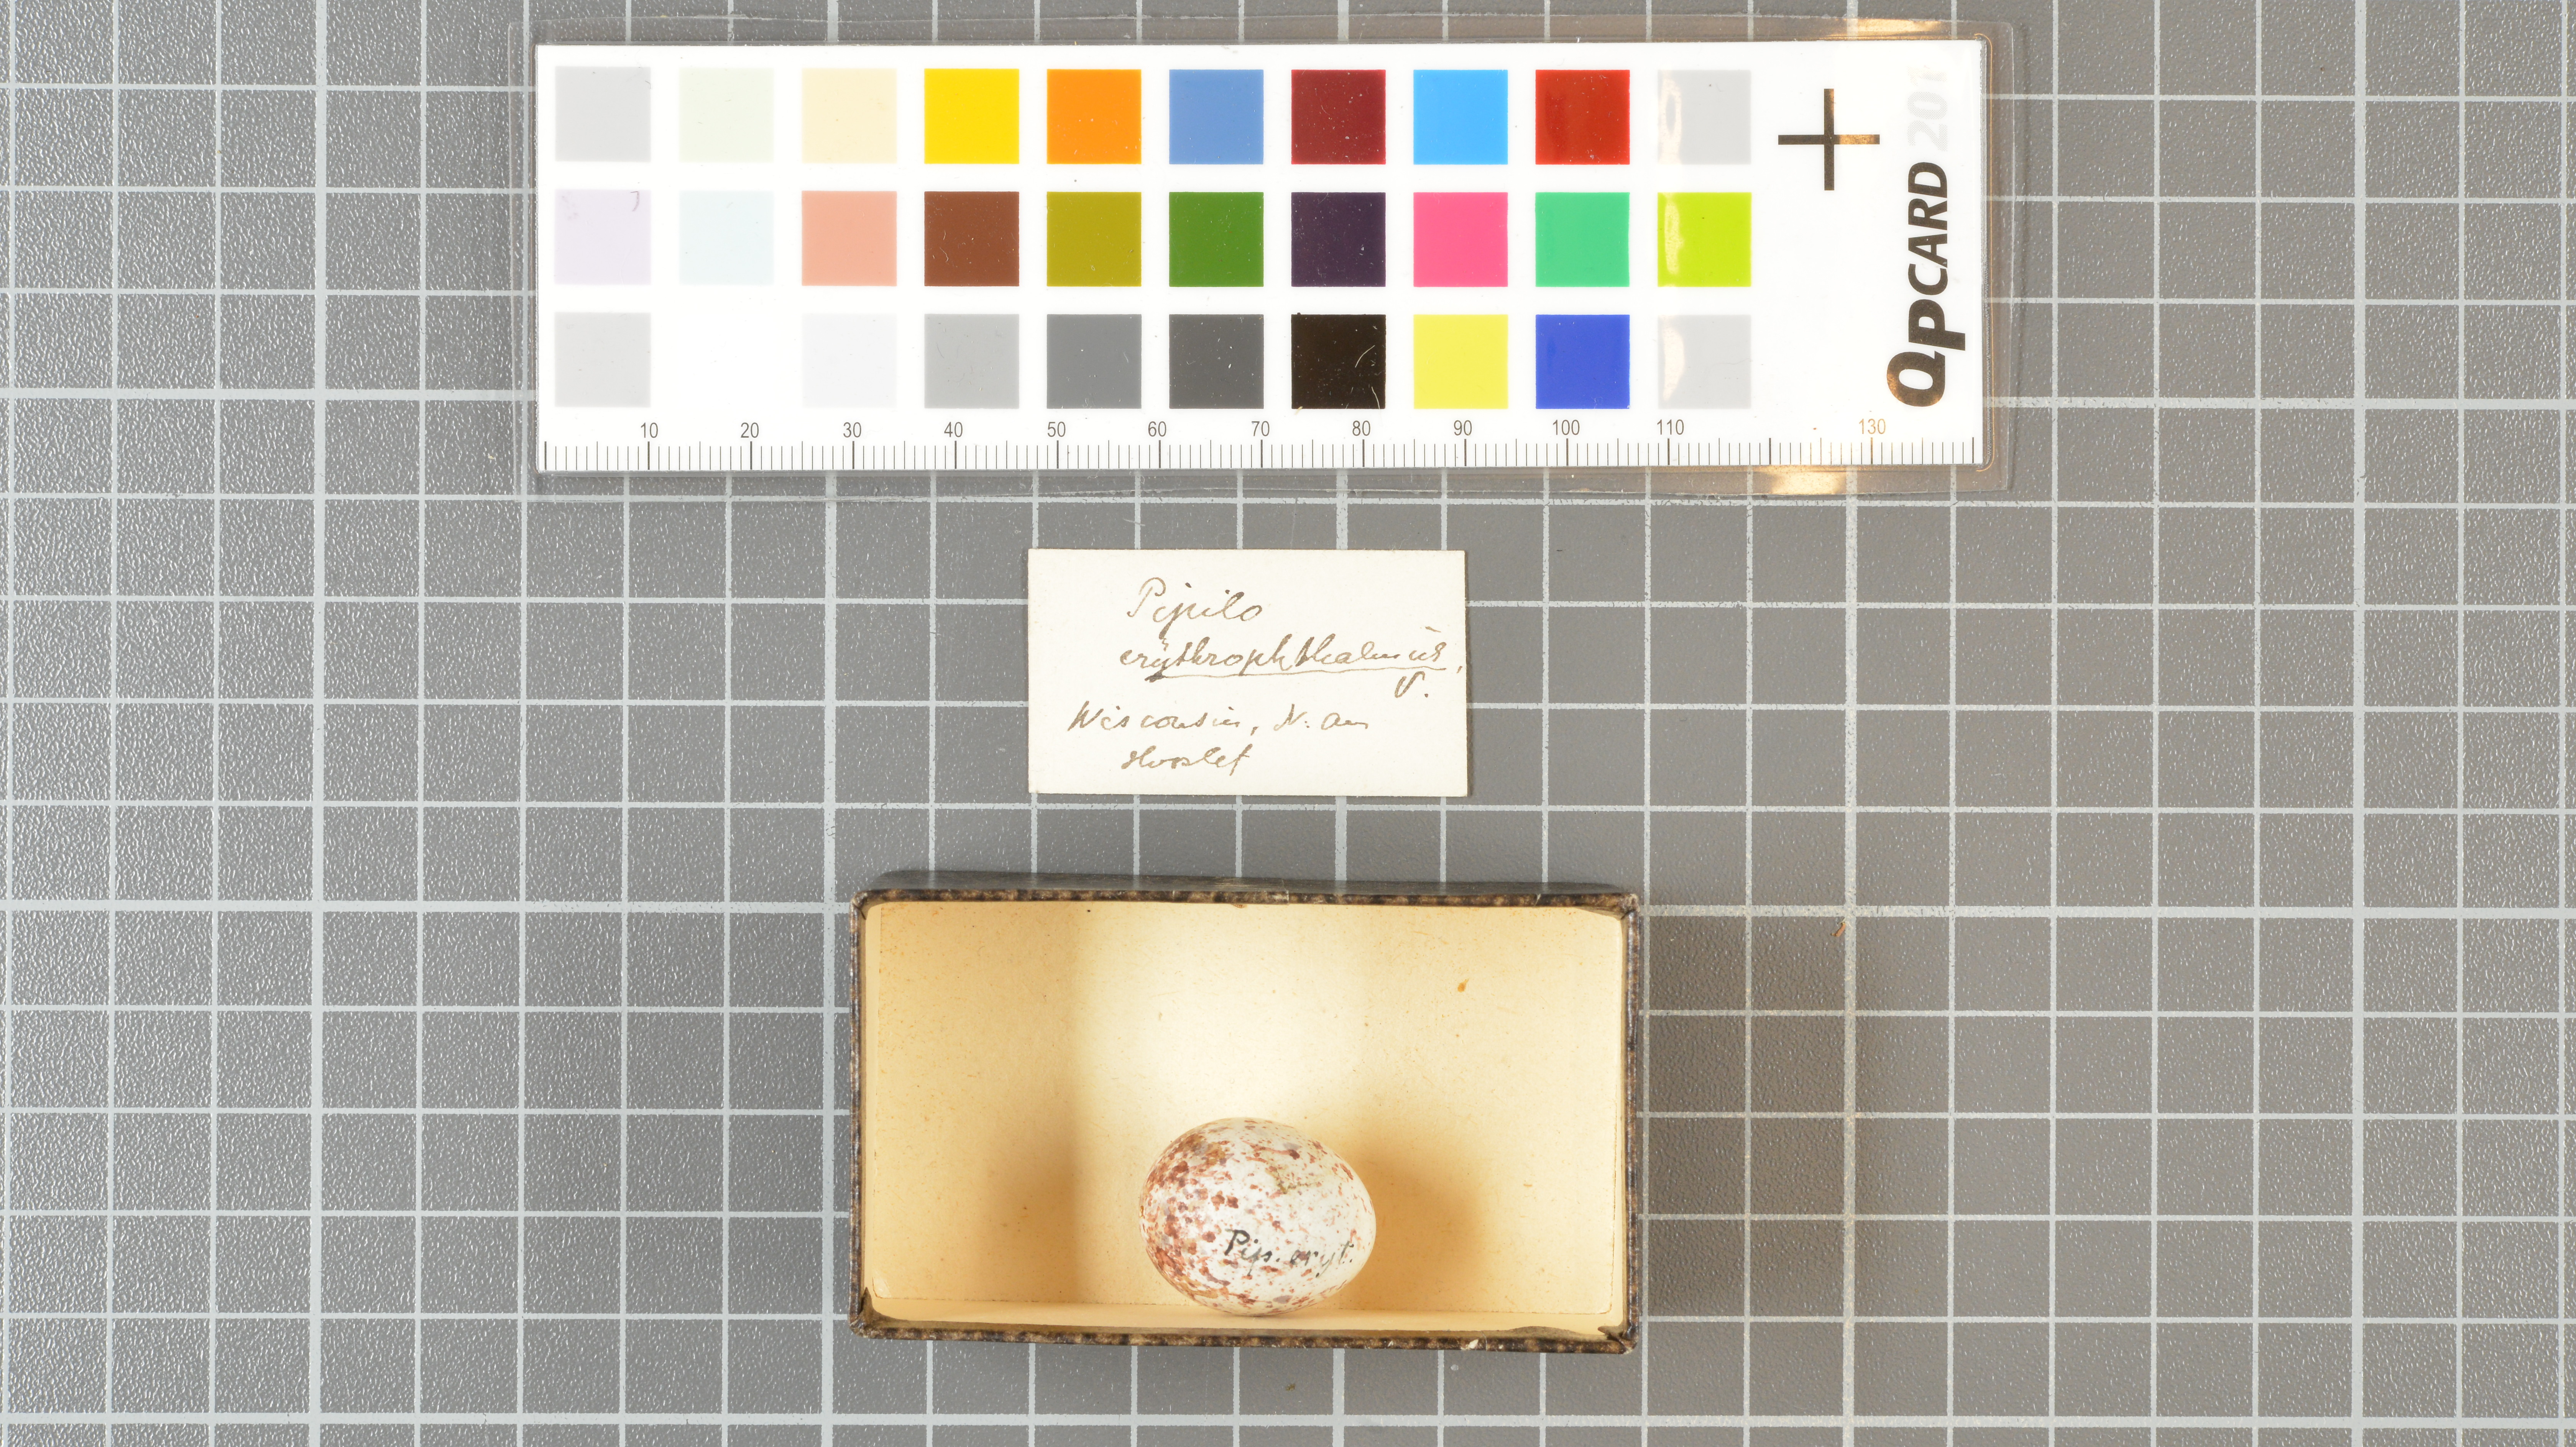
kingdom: Animalia
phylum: Chordata
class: Aves
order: Passeriformes
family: Passerellidae
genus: Pipilo
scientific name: Pipilo erythrophthalmus
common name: Eastern towhee
